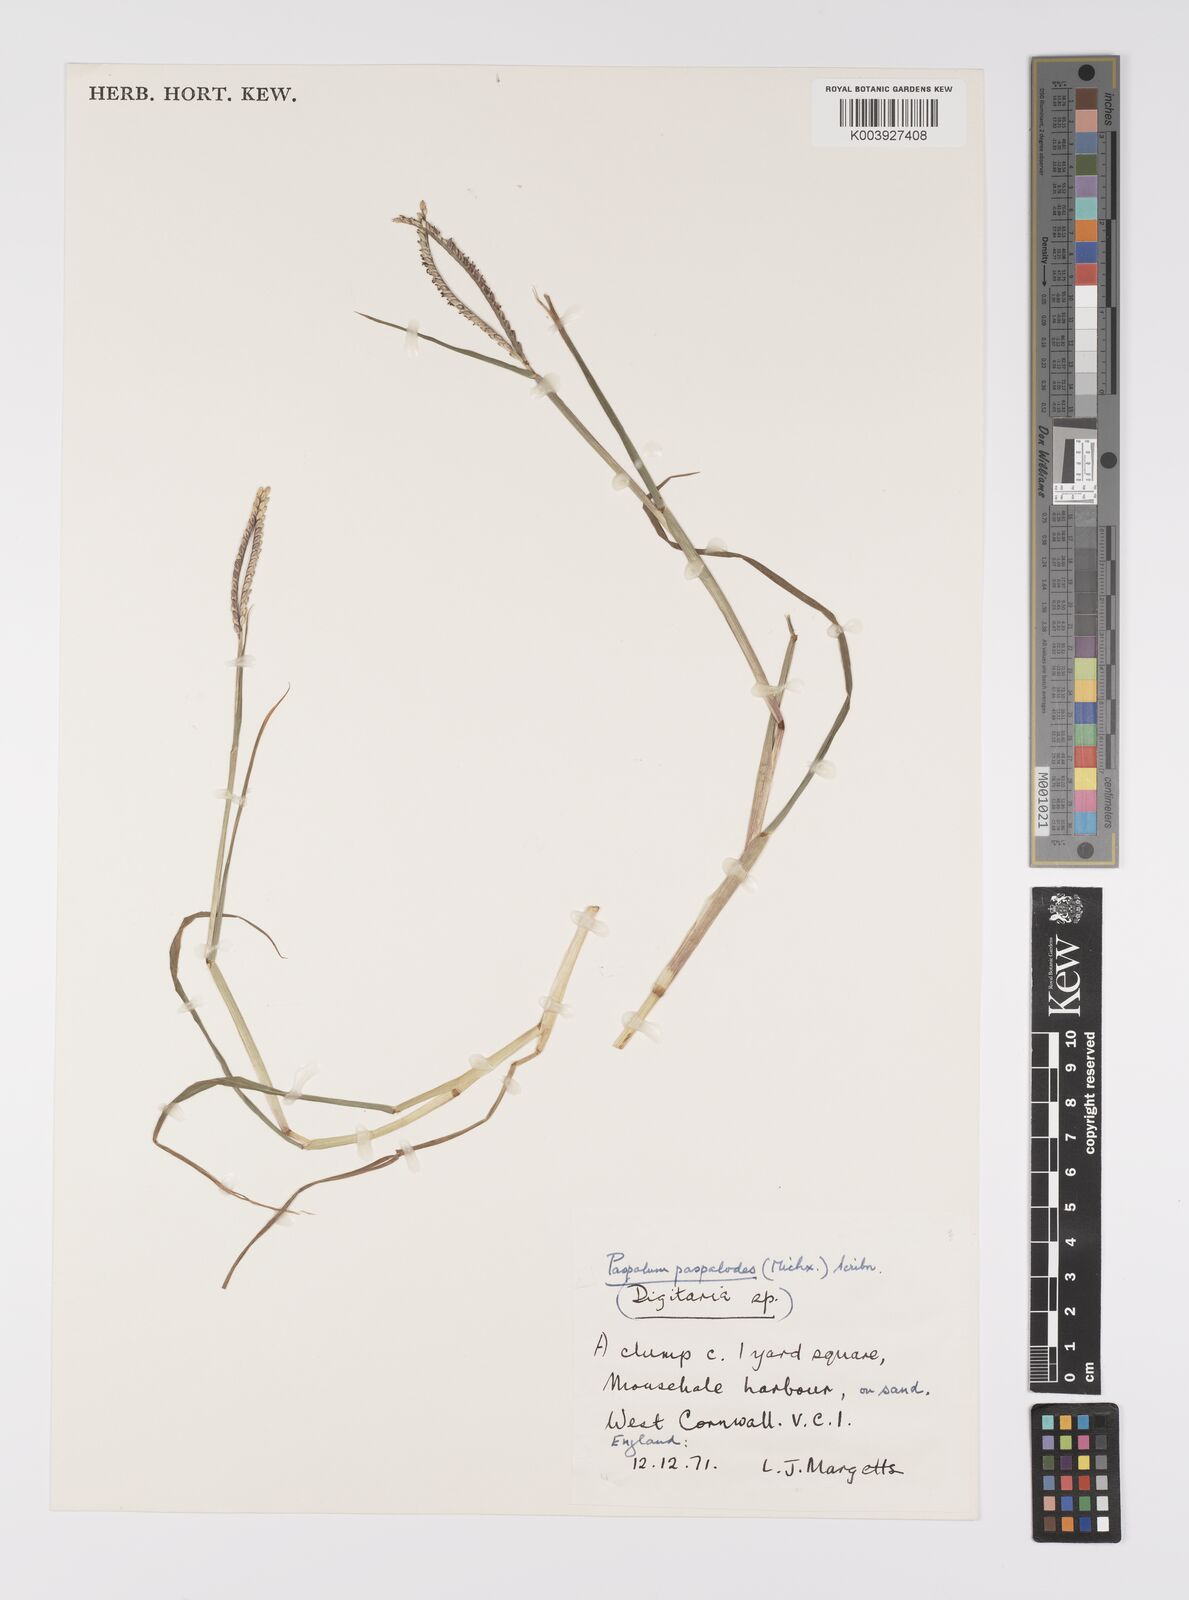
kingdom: Plantae
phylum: Tracheophyta
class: Liliopsida
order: Poales
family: Poaceae
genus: Paspalum
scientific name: Paspalum
